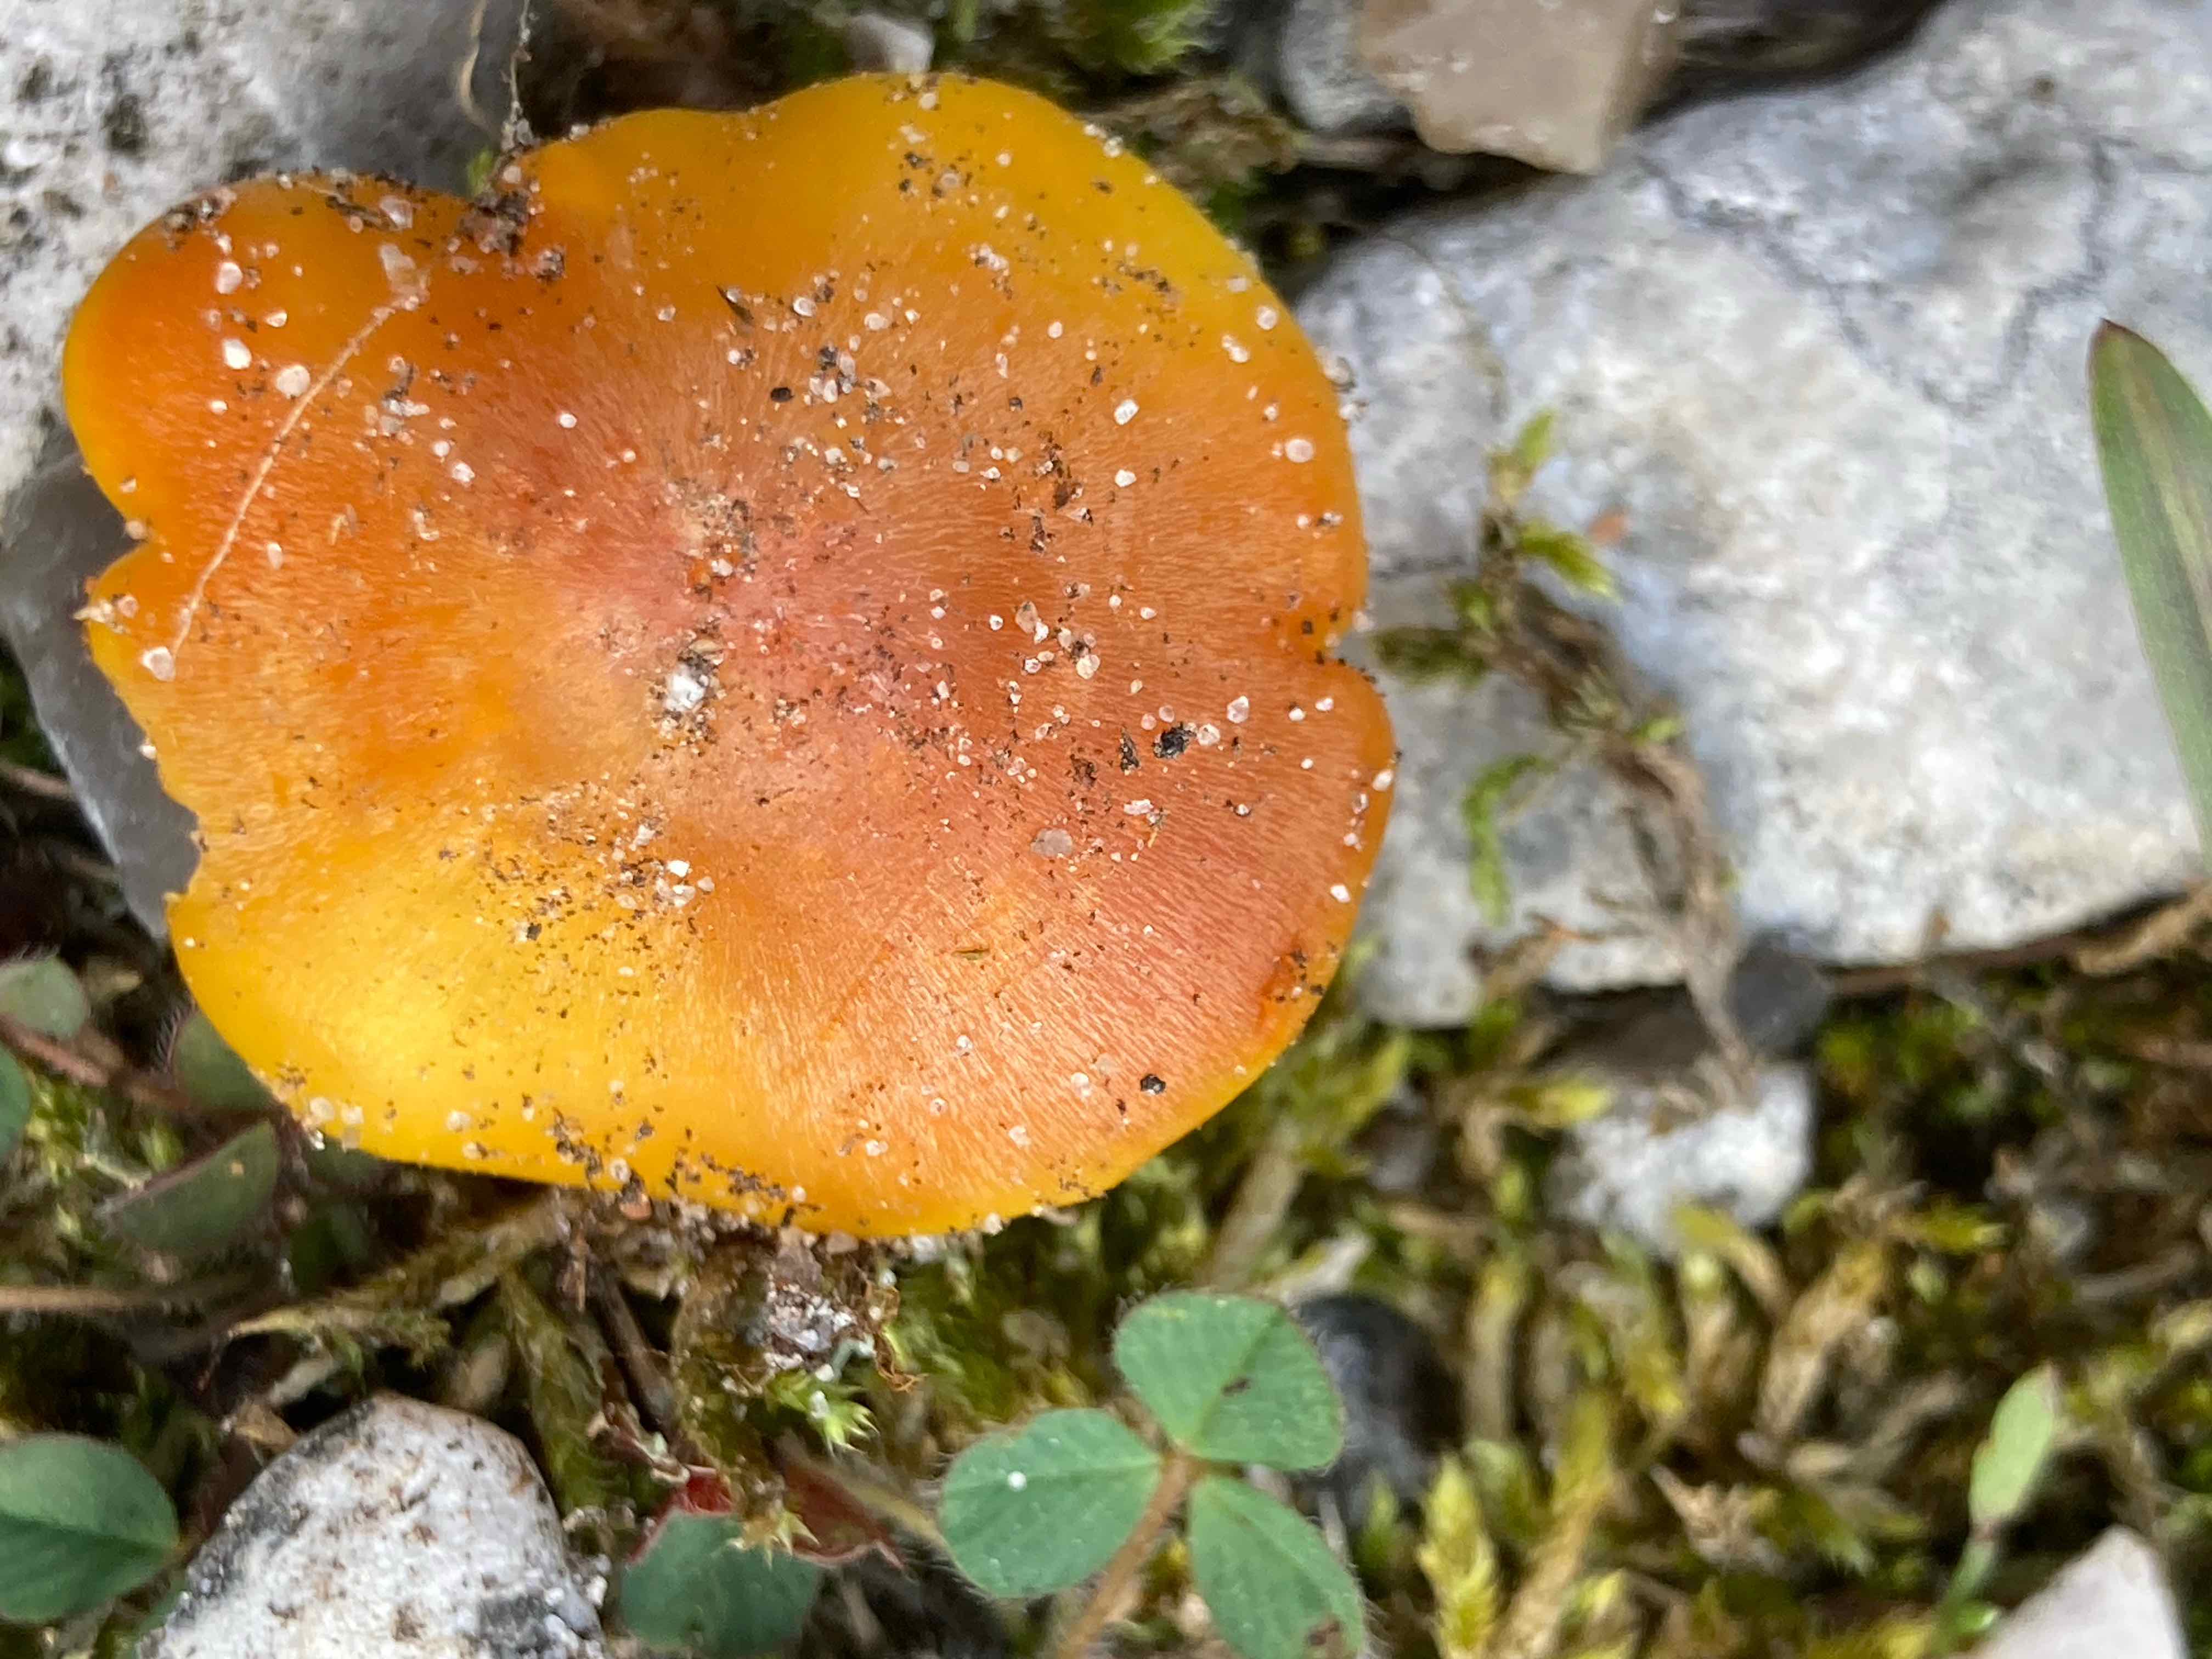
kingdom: Fungi
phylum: Basidiomycota
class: Agaricomycetes
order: Agaricales
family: Hygrophoraceae
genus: Hygrocybe
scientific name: Hygrocybe
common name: vokshat
